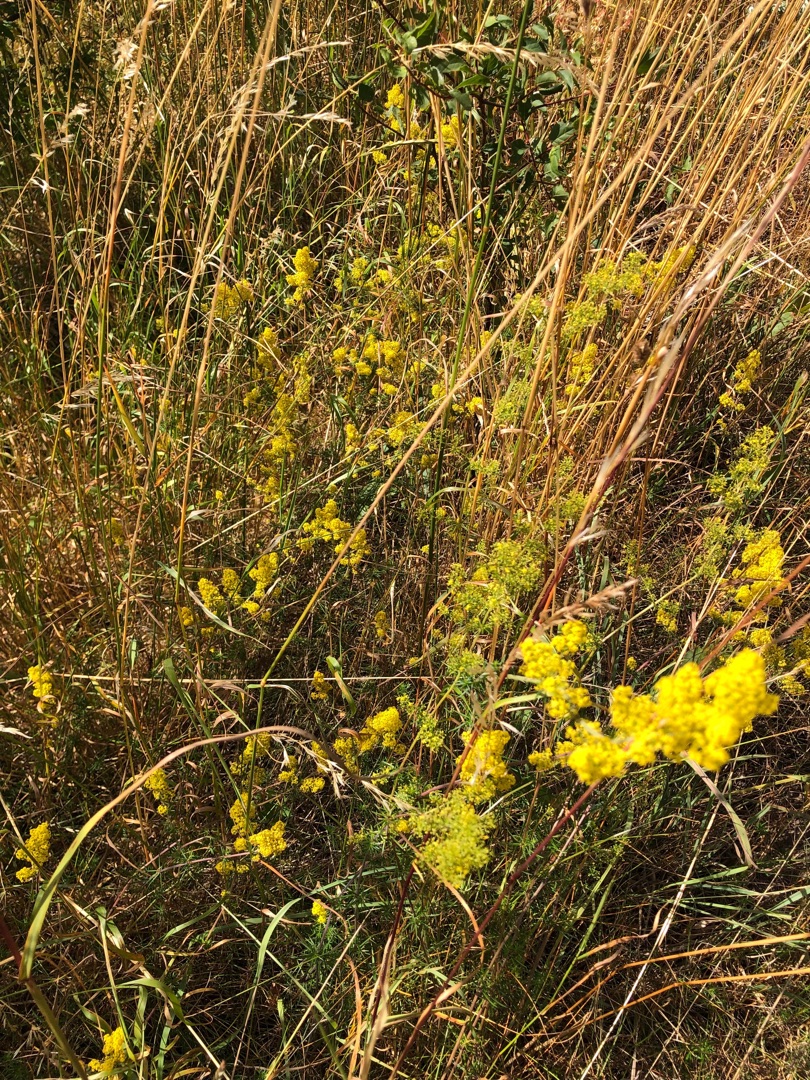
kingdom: Plantae
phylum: Tracheophyta
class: Magnoliopsida
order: Gentianales
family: Rubiaceae
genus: Galium
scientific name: Galium verum
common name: Gul snerre
